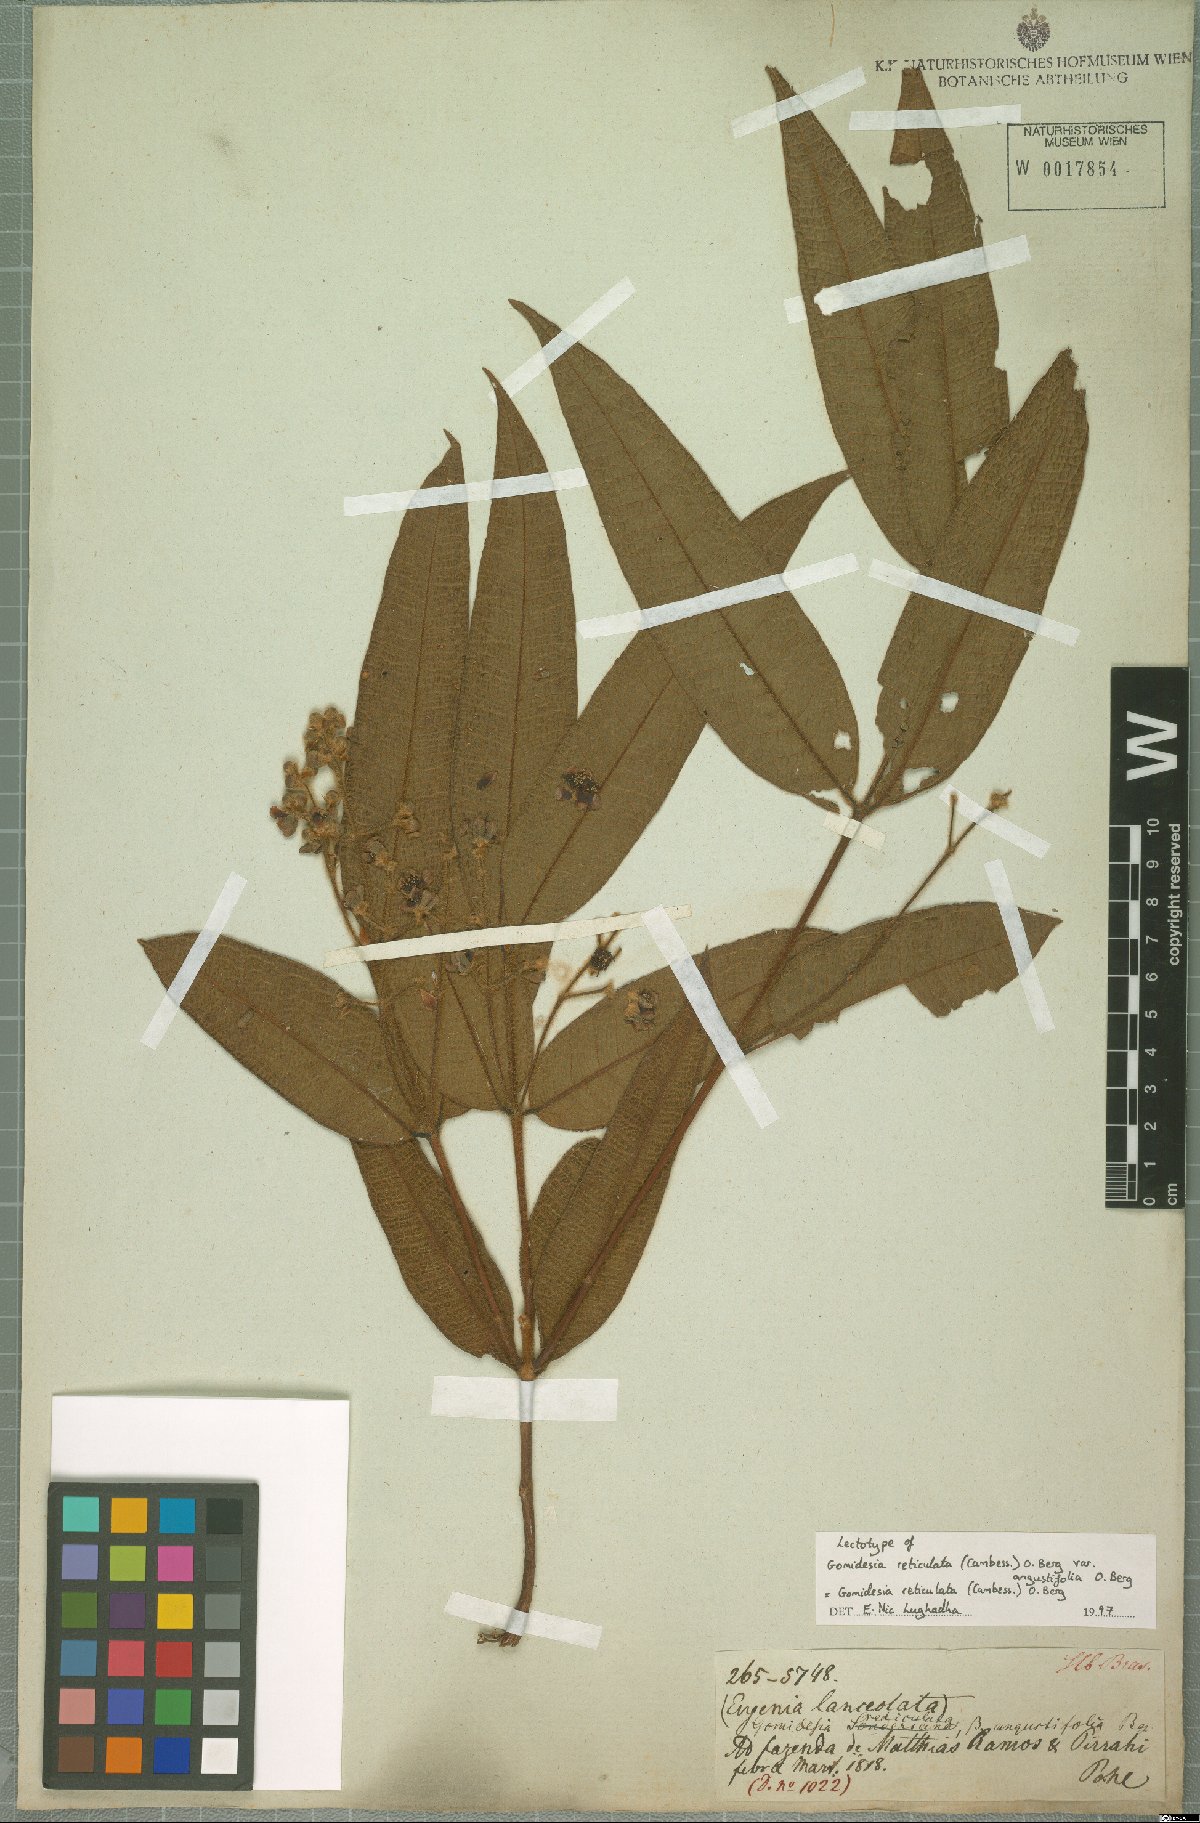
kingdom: Plantae
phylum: Tracheophyta
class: Magnoliopsida
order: Myrtales
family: Myrtaceae
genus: Myrcia
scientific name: Myrcia reticulata
